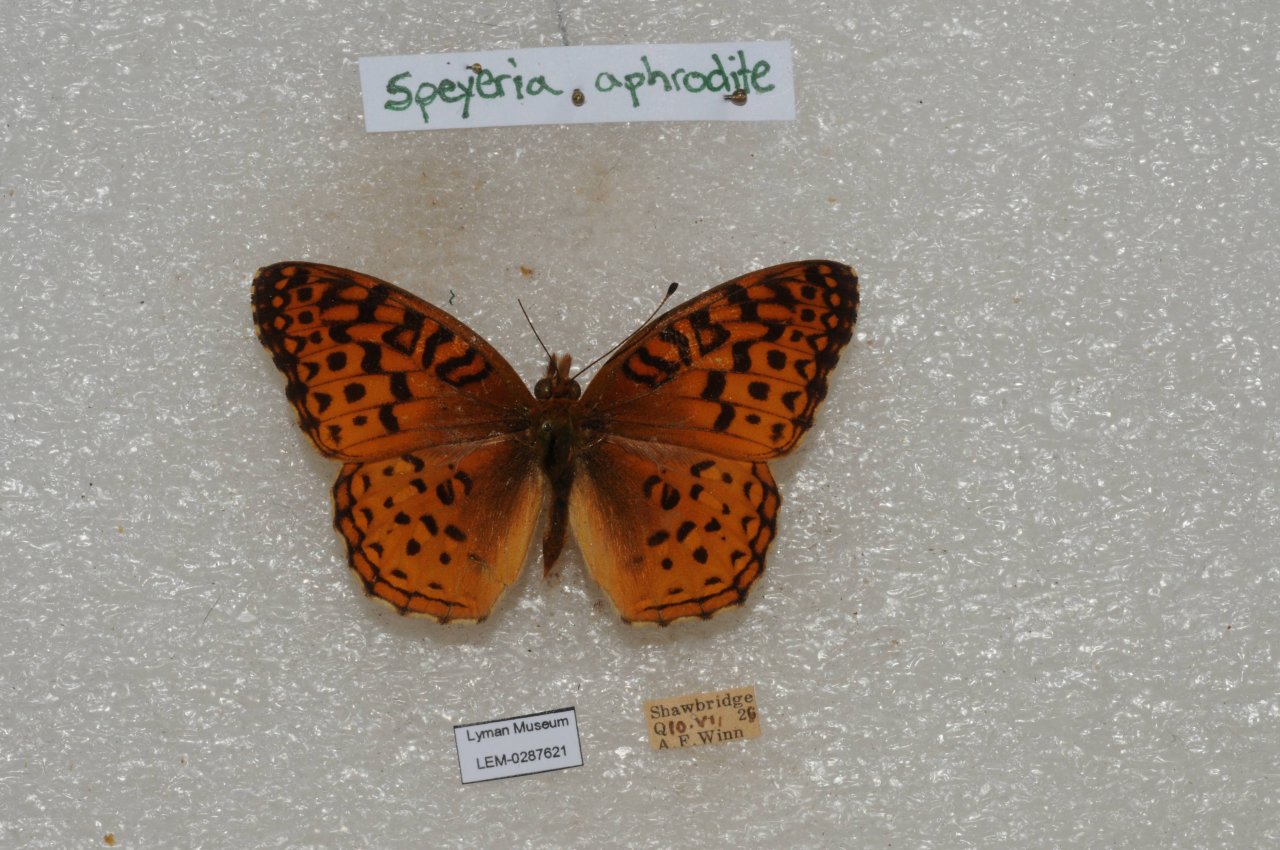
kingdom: Animalia
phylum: Arthropoda
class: Insecta
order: Lepidoptera
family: Nymphalidae
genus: Speyeria
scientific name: Speyeria aphrodite
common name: Aphrodite Fritillary
